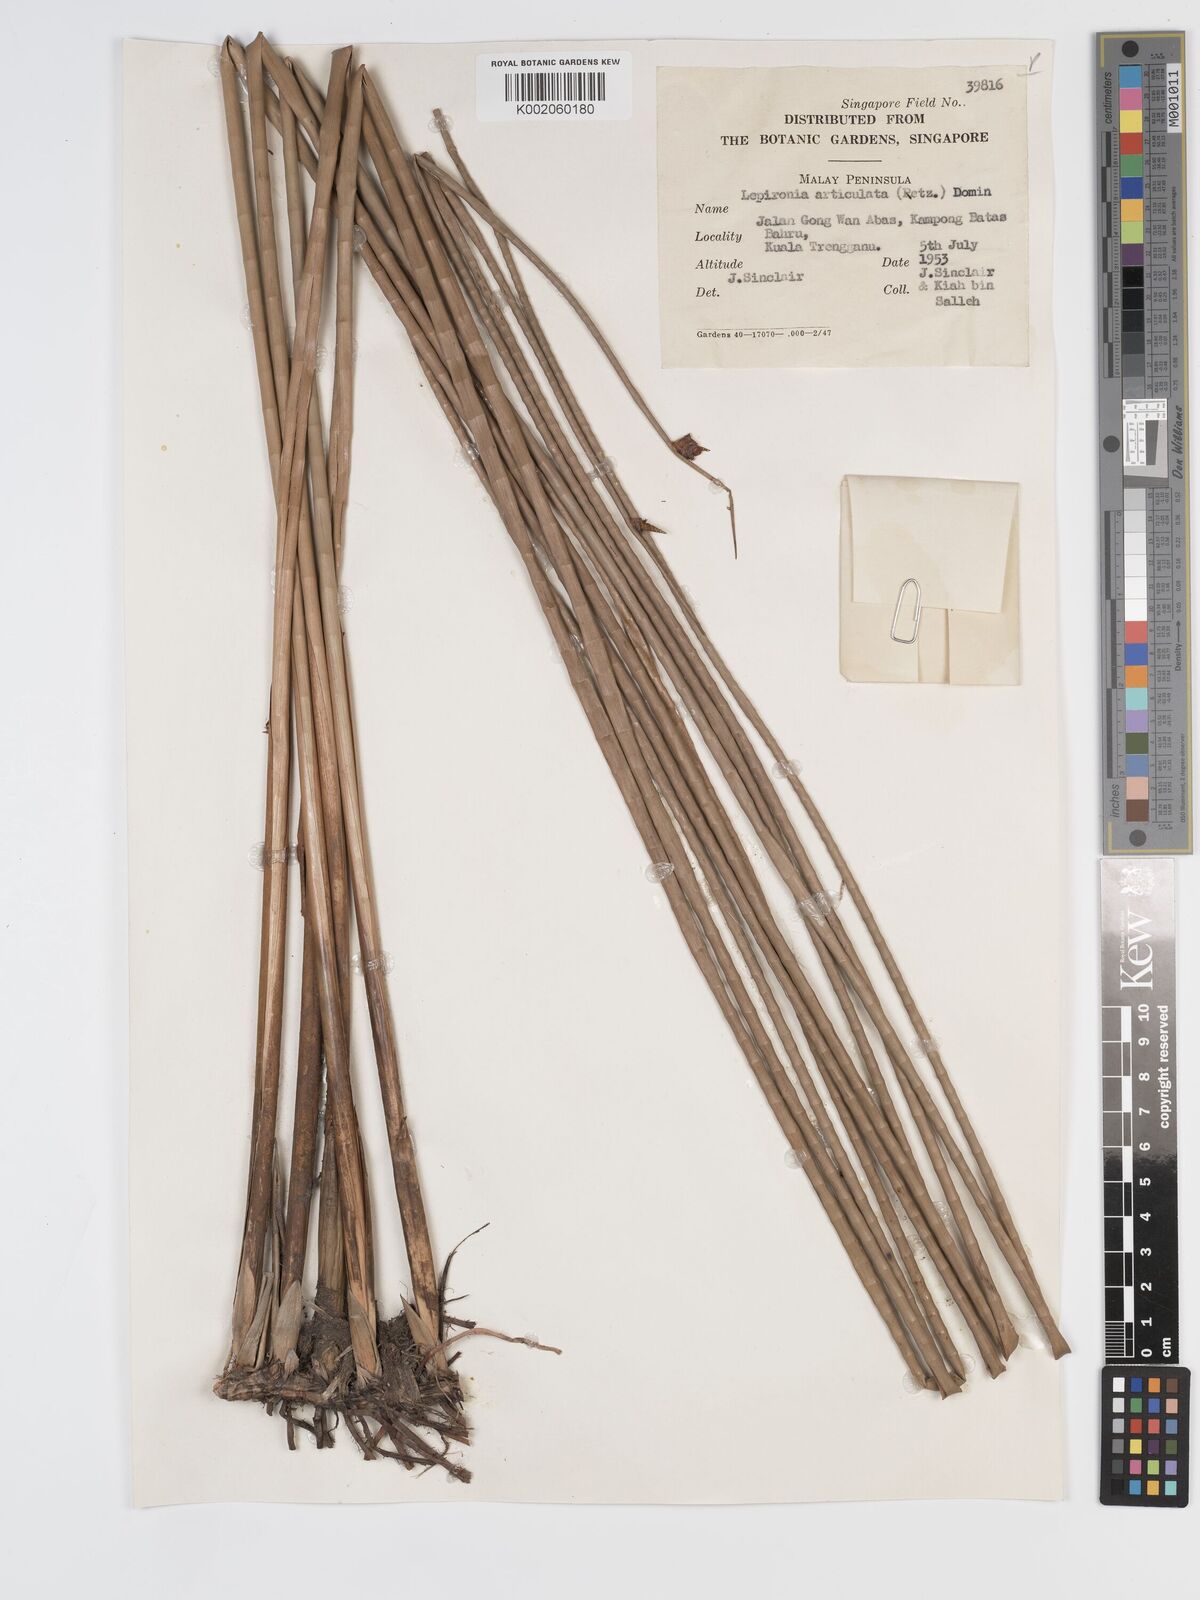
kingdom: Plantae
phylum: Tracheophyta
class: Liliopsida
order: Poales
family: Cyperaceae
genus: Lepironia
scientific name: Lepironia articulata
